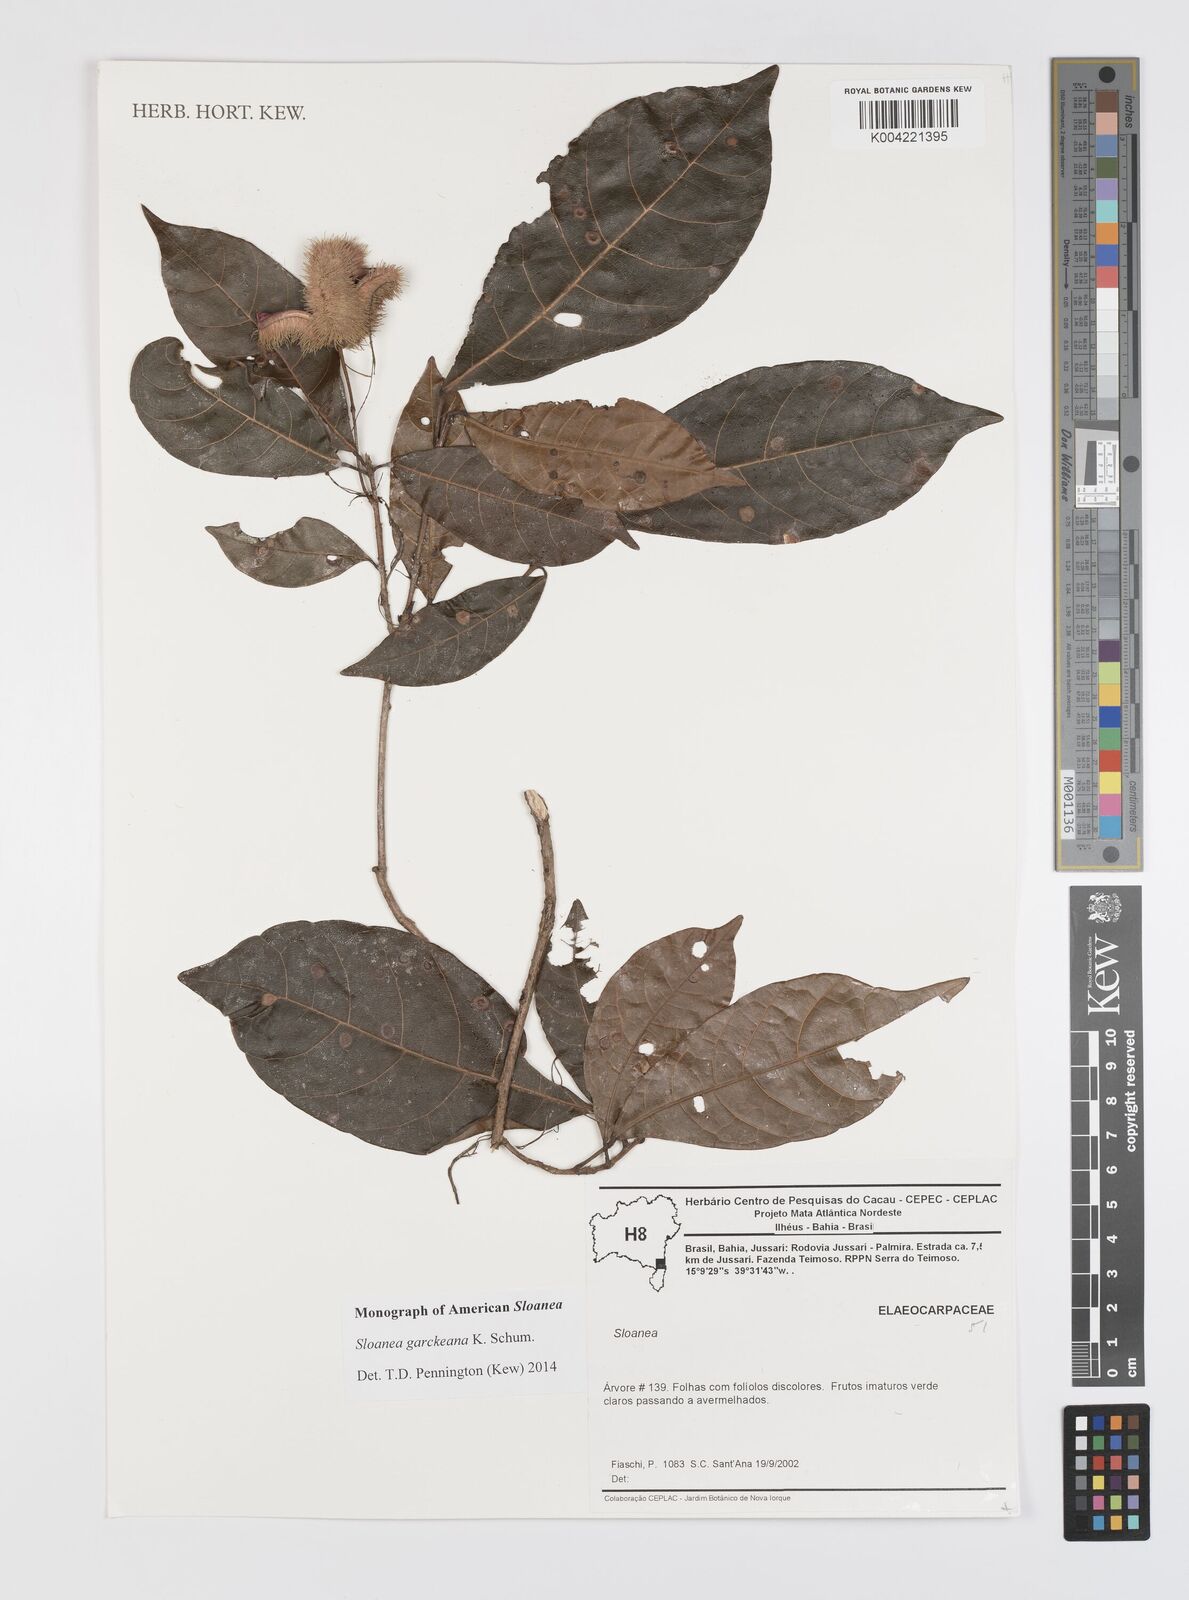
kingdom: Plantae
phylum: Tracheophyta
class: Magnoliopsida
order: Oxalidales
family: Elaeocarpaceae
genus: Sloanea
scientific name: Sloanea garckeana
